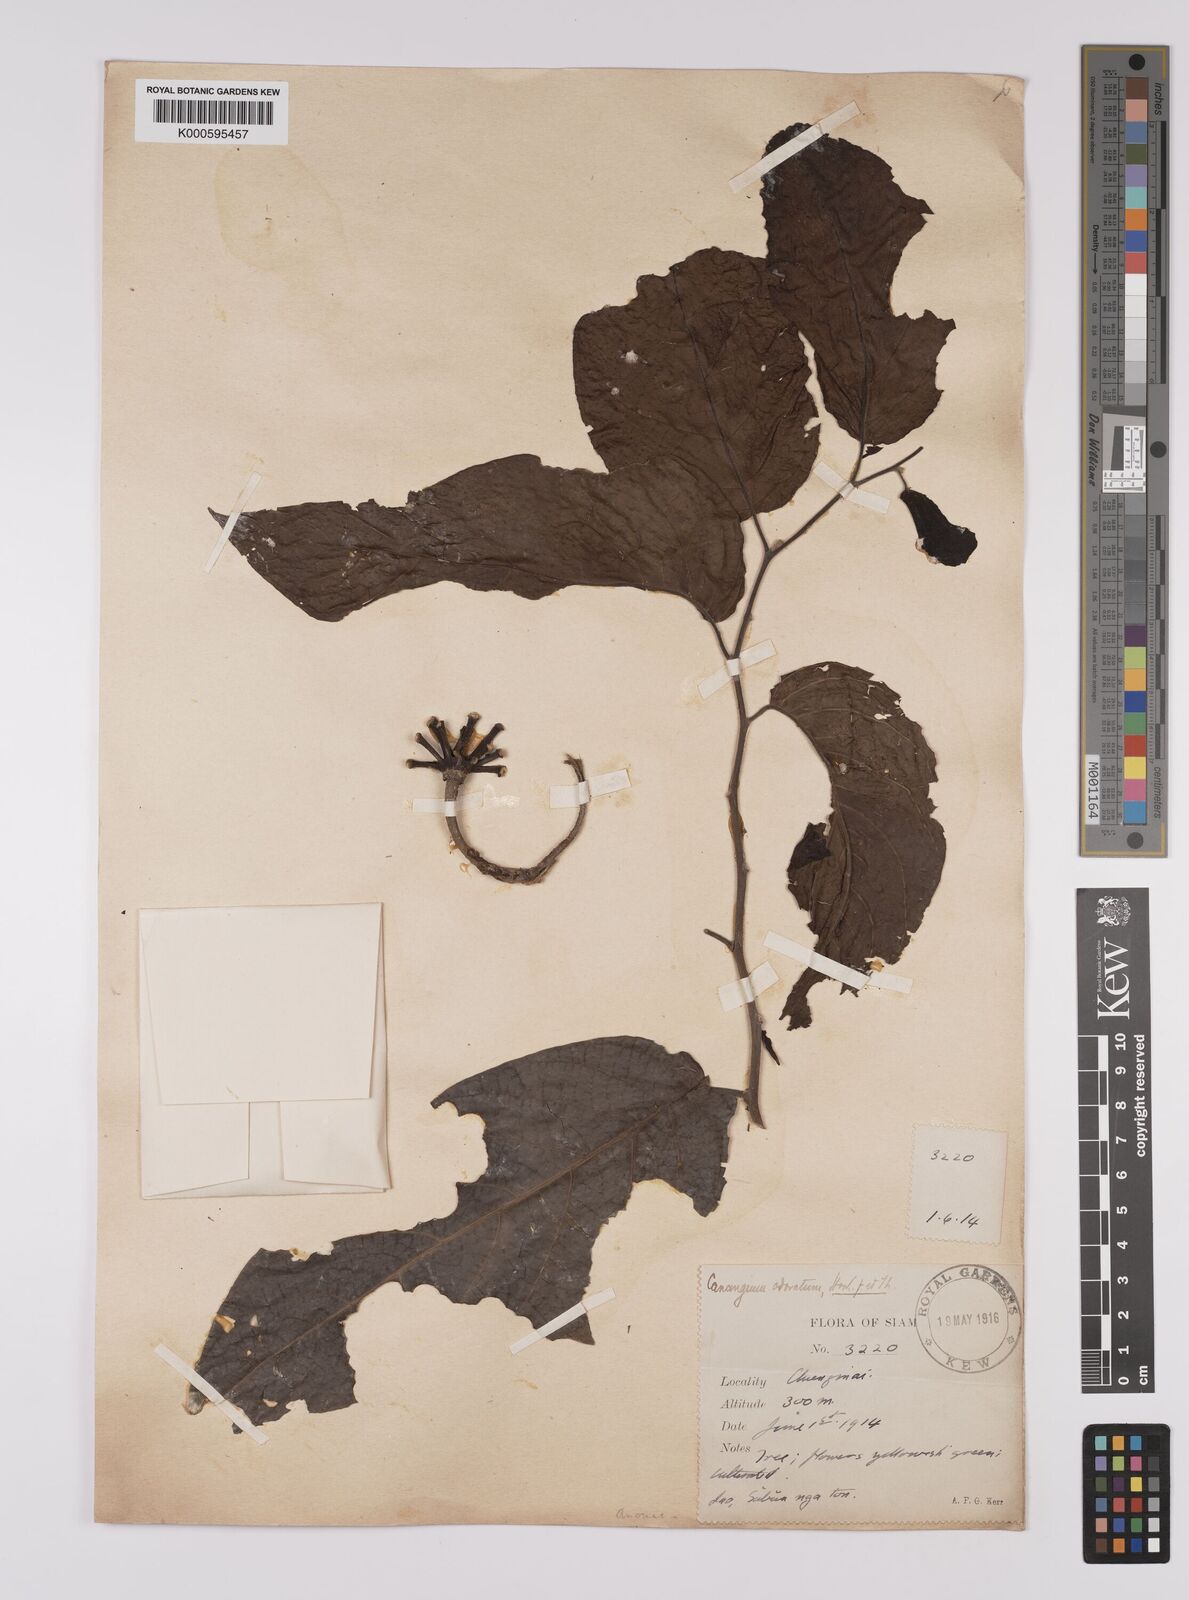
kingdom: Plantae
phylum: Tracheophyta
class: Magnoliopsida
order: Magnoliales
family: Annonaceae
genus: Cananga
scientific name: Cananga odorata
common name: Cananga tree
